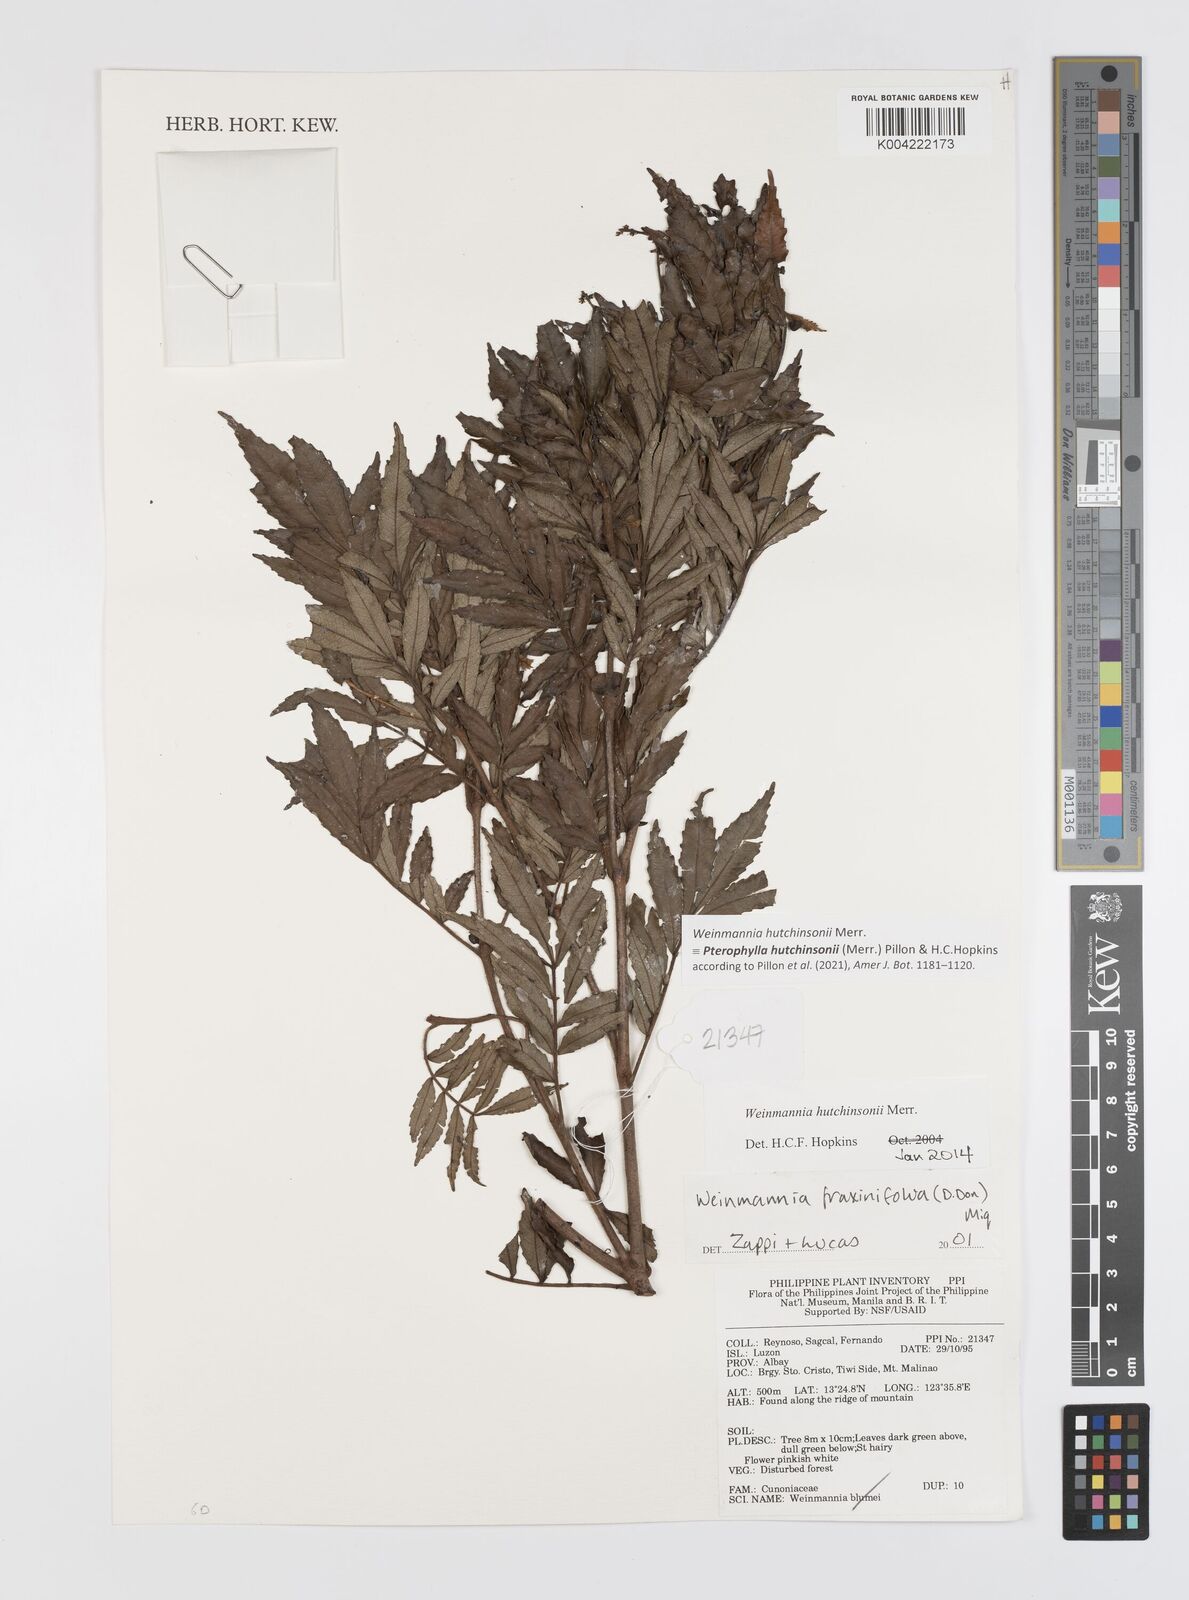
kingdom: Plantae
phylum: Tracheophyta
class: Magnoliopsida
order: Oxalidales
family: Cunoniaceae
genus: Pterophylla
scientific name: Pterophylla hutchinsonii
